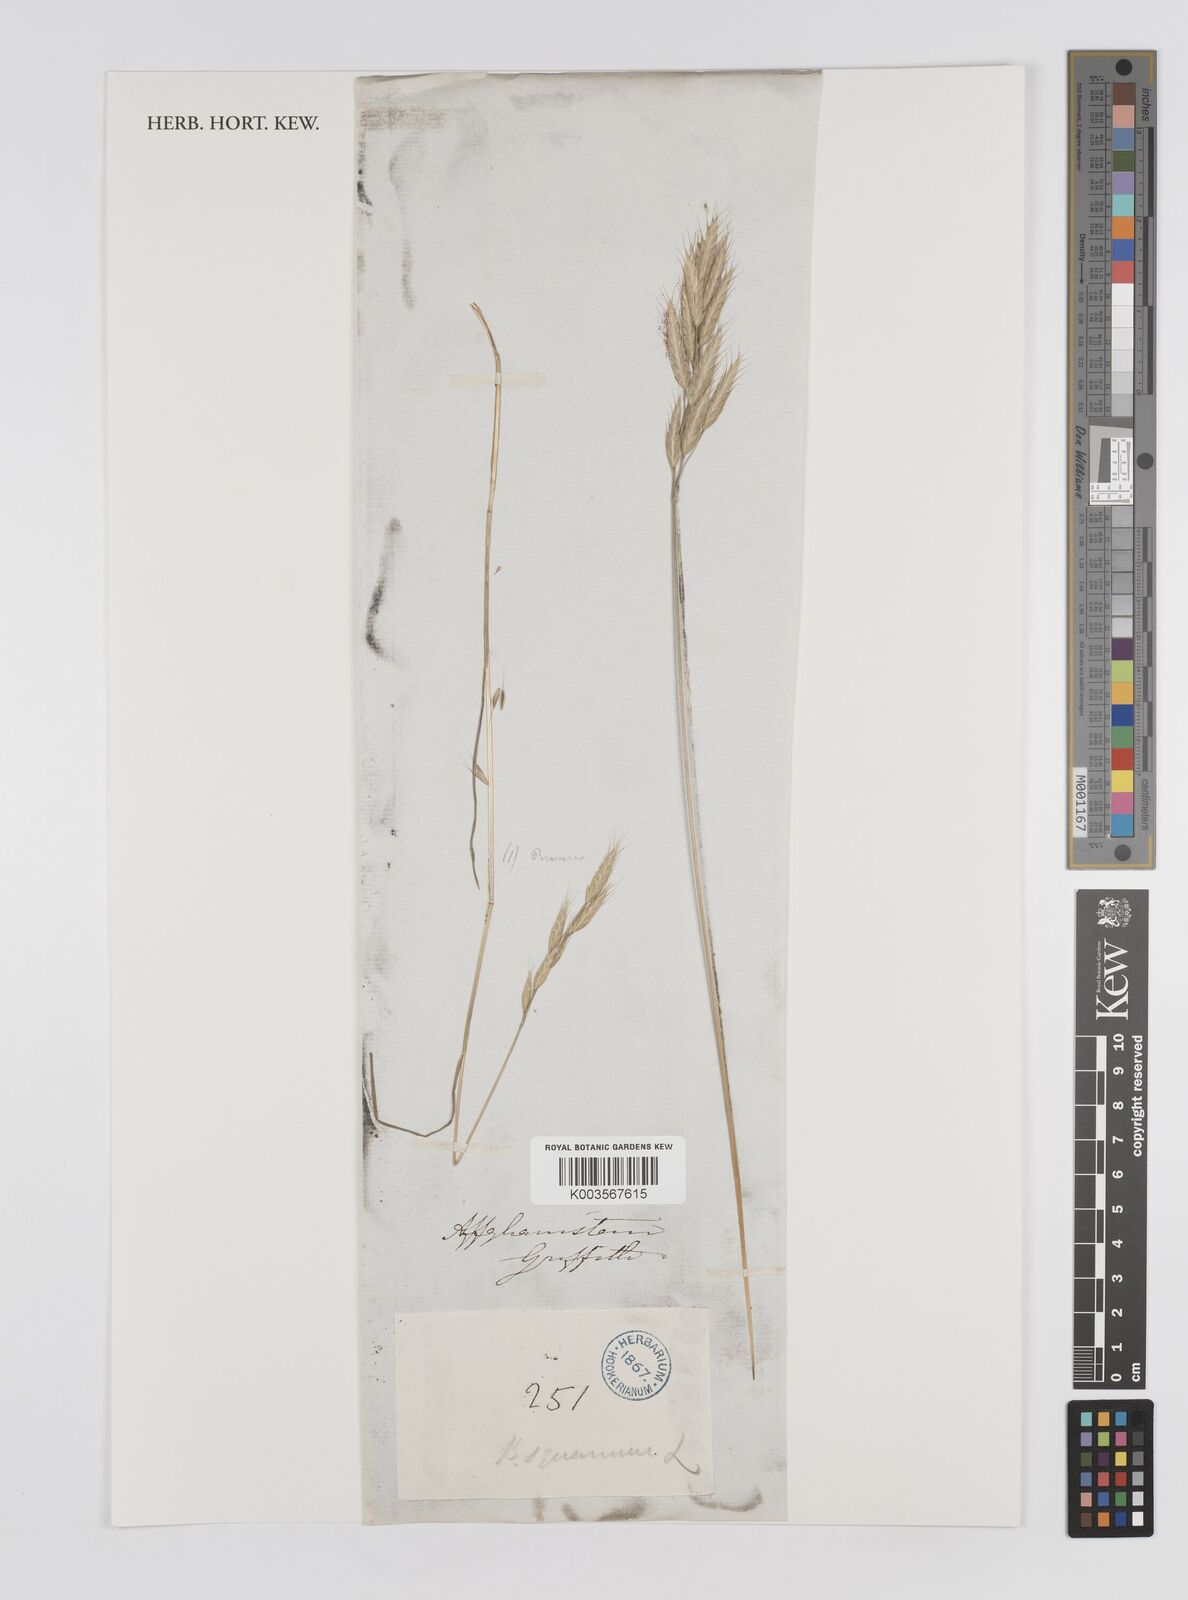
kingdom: Plantae
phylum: Tracheophyta
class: Liliopsida
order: Poales
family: Poaceae
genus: Bromus
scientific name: Bromus brachystachys
